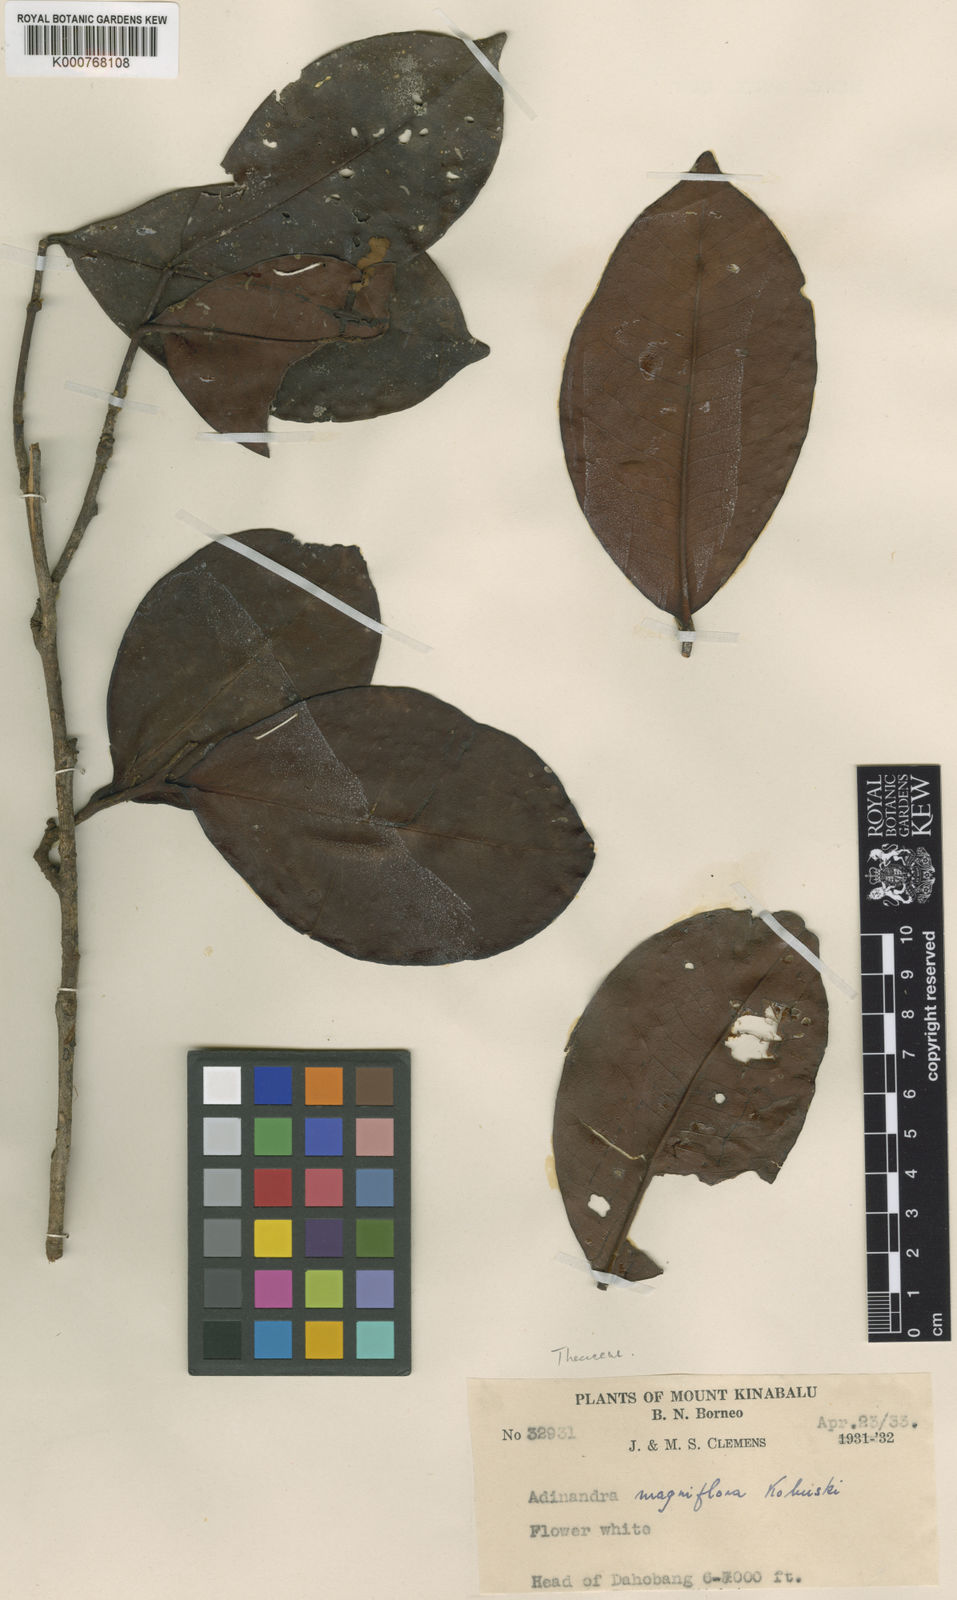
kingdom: Plantae
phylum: Tracheophyta
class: Magnoliopsida
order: Ericales
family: Pentaphylacaceae
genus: Adinandra
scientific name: Adinandra magniflora
